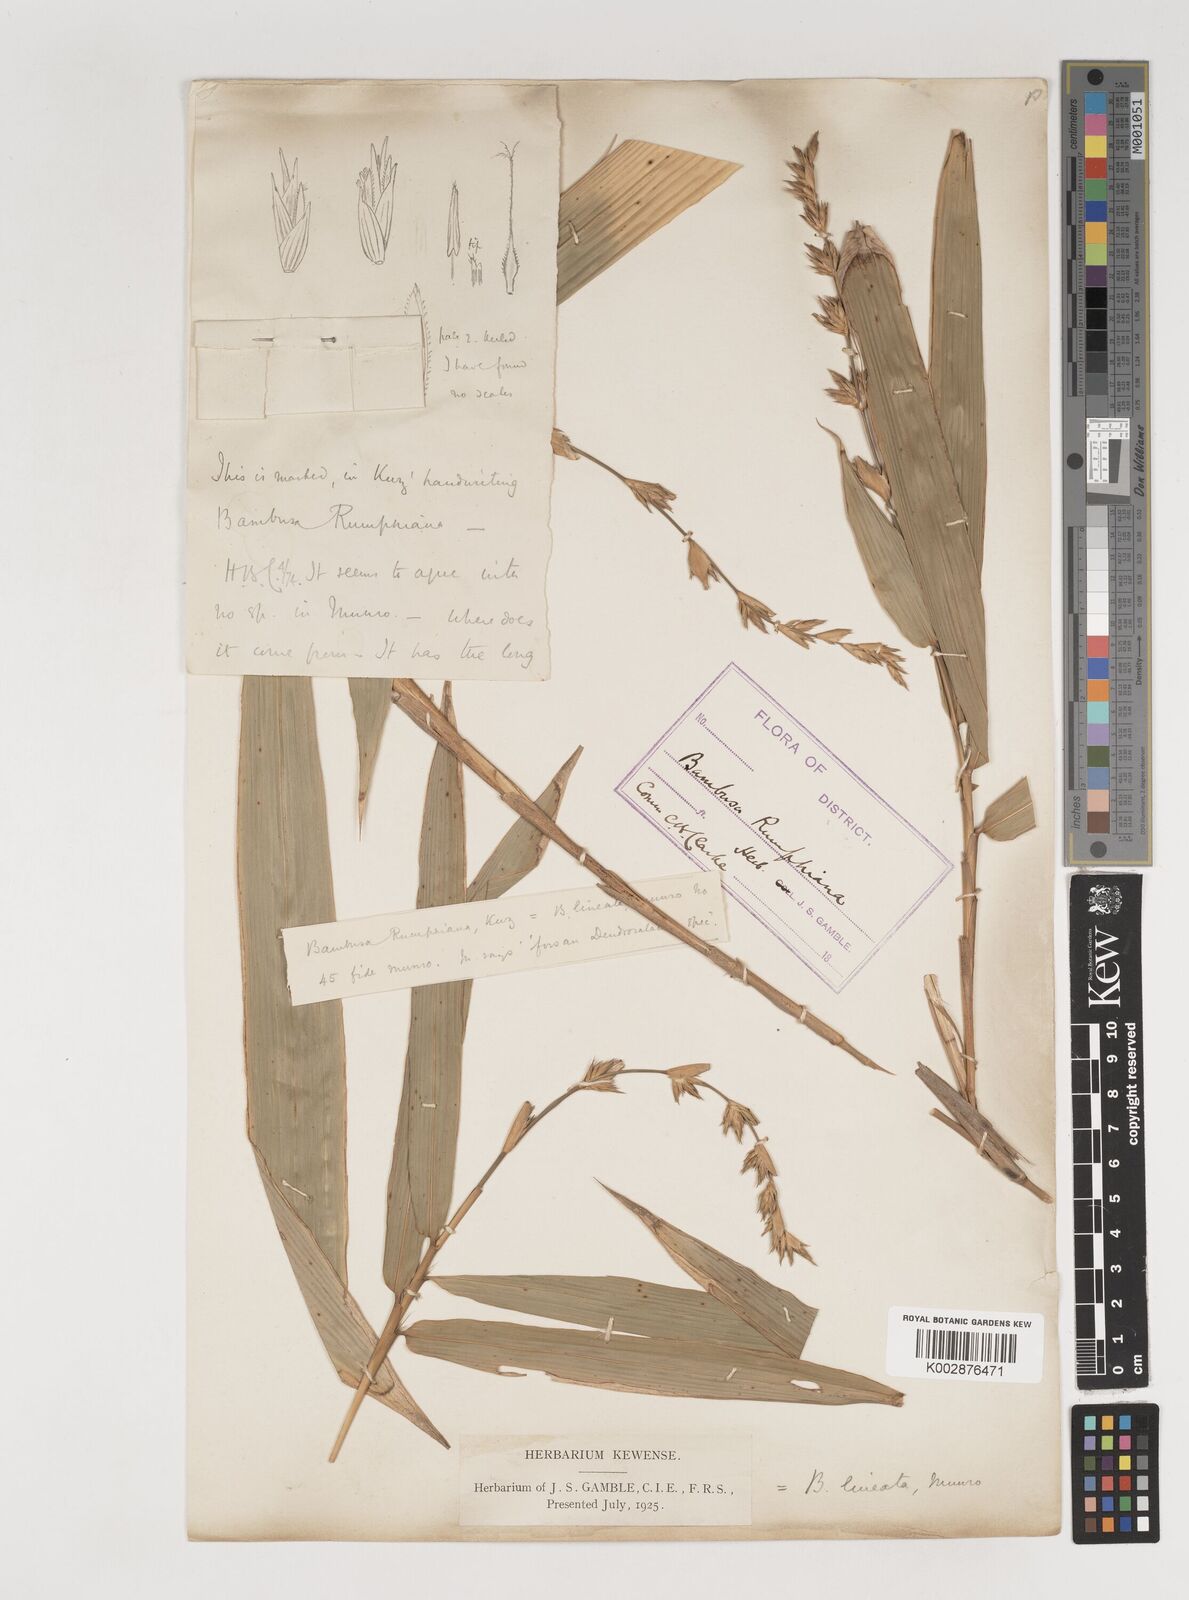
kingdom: Plantae
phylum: Tracheophyta
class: Liliopsida
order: Poales
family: Poaceae
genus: Neololeba
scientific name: Neololeba amahussana
